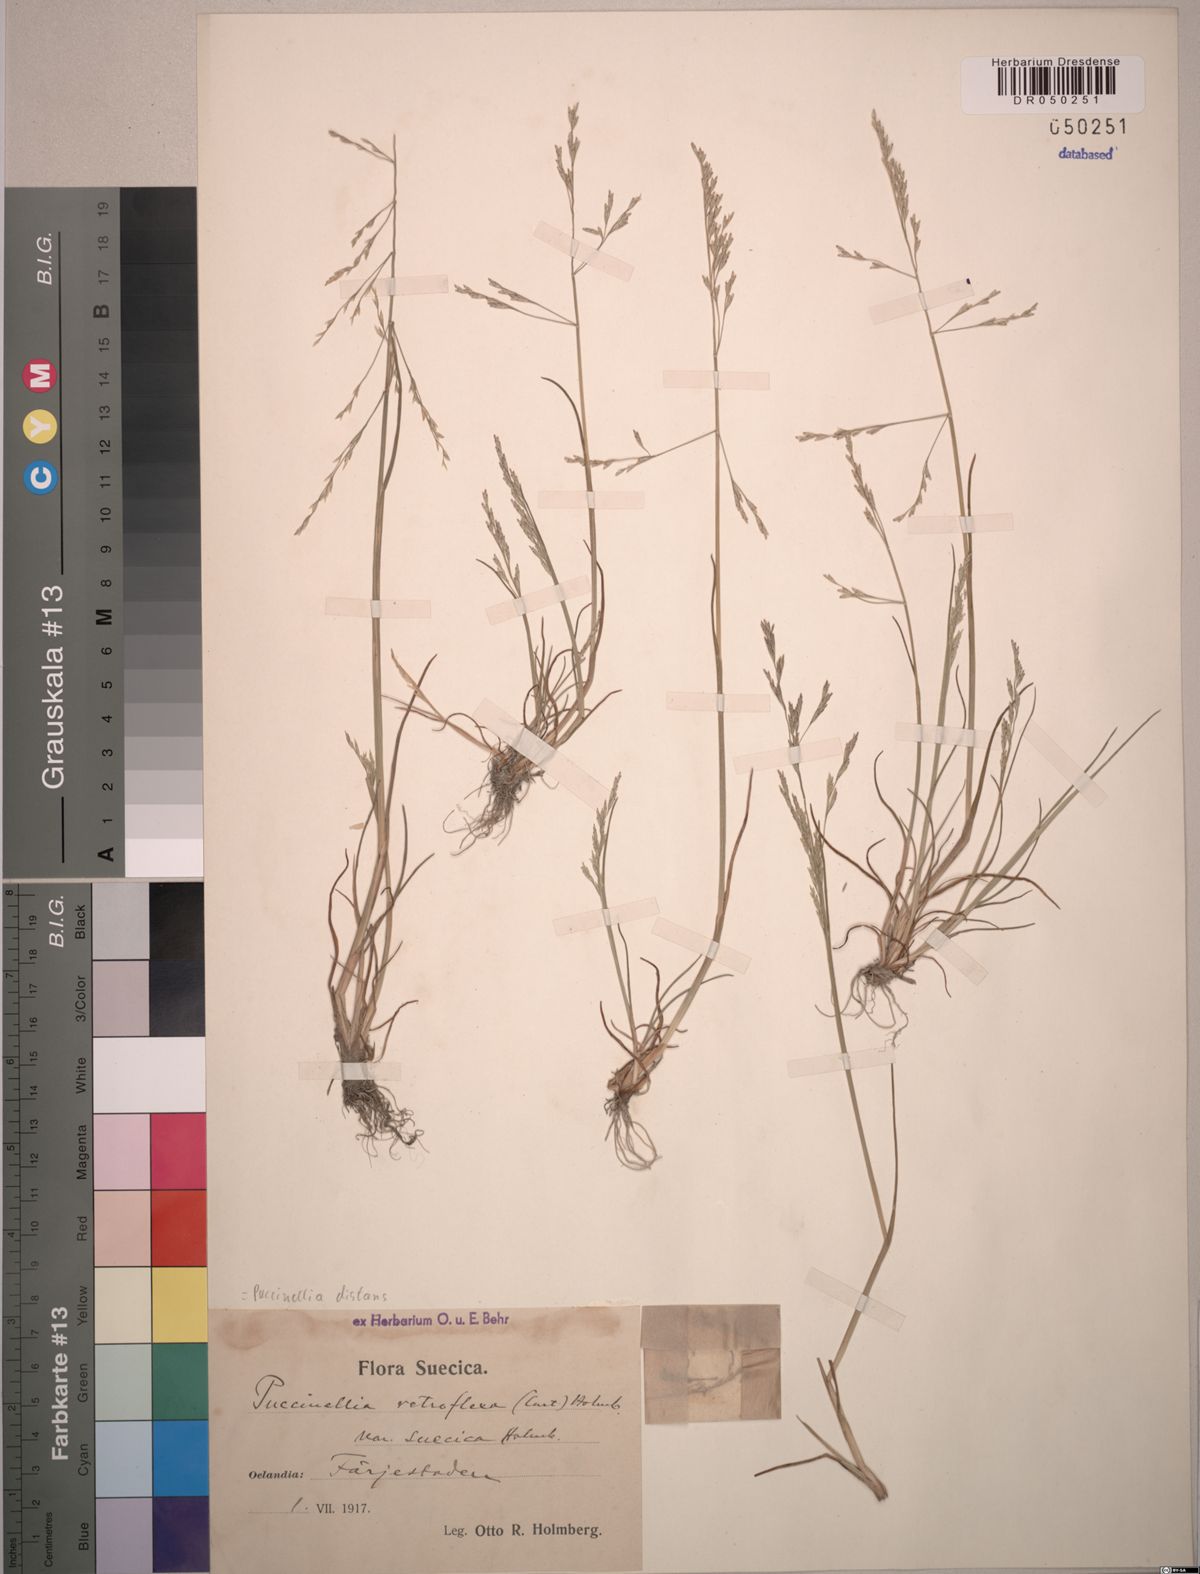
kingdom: Plantae
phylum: Tracheophyta
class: Liliopsida
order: Poales
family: Poaceae
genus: Puccinellia
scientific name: Puccinellia distans
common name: Weeping alkaligrass
